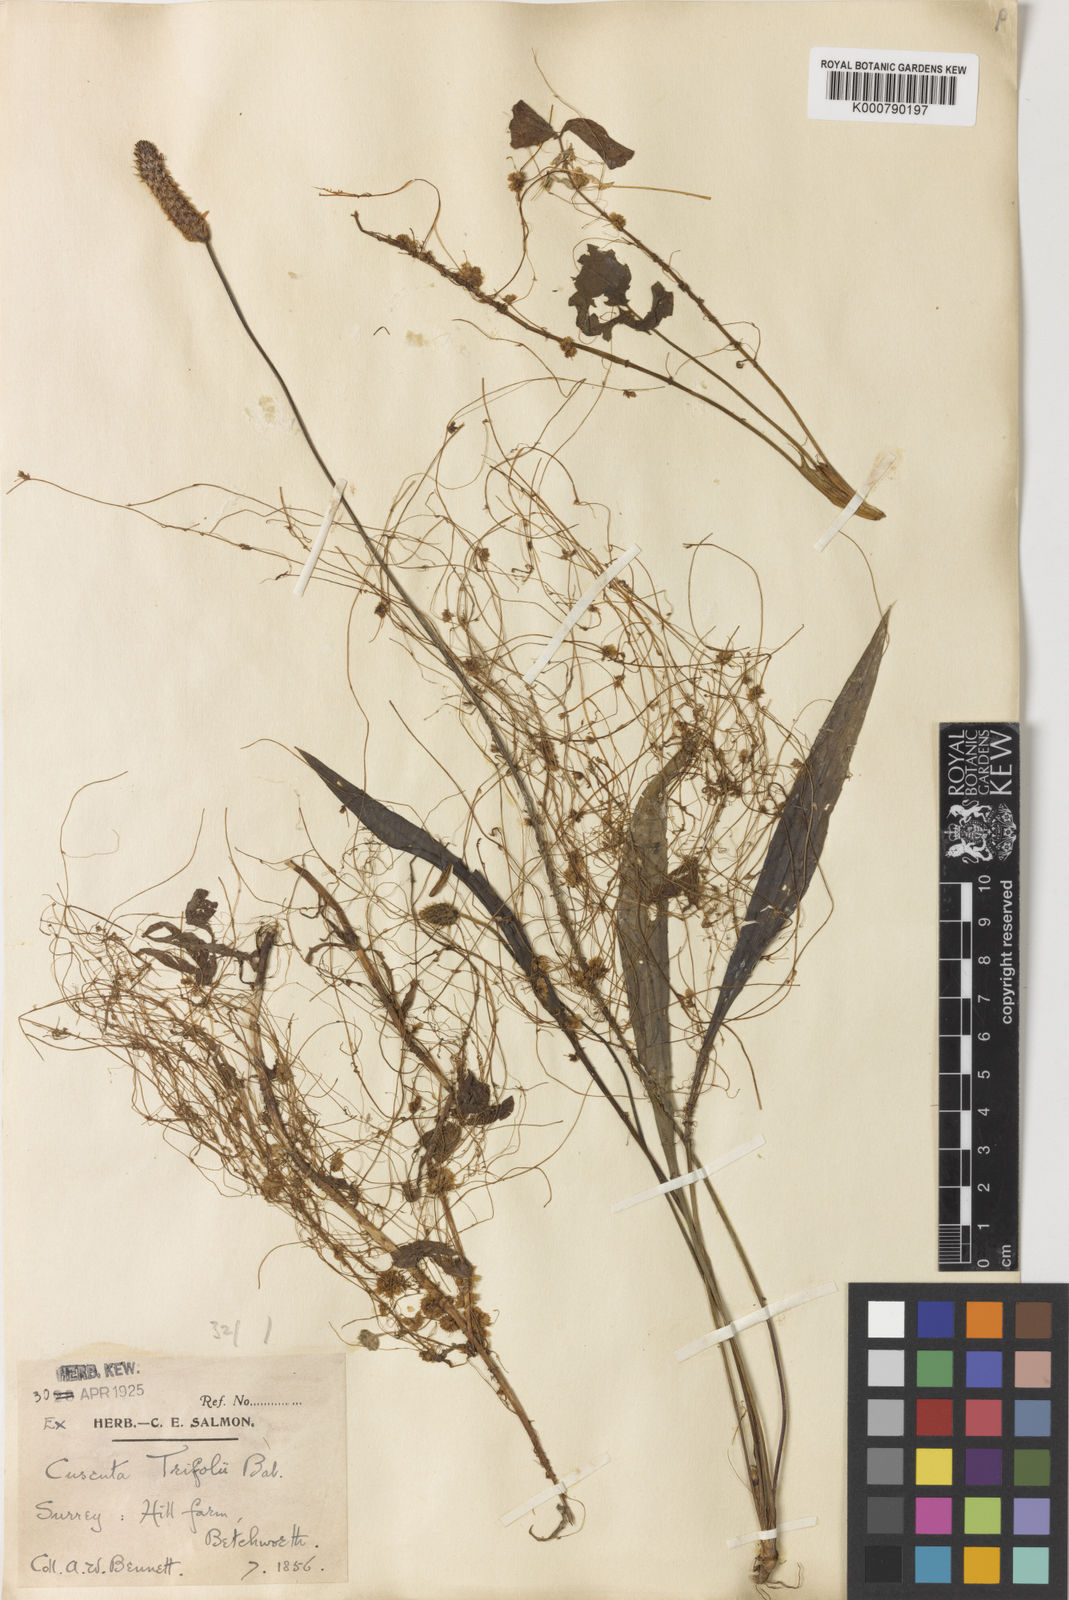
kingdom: Plantae
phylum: Tracheophyta
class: Magnoliopsida
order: Solanales
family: Convolvulaceae
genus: Cuscuta
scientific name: Cuscuta epithymum
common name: Clover dodder
